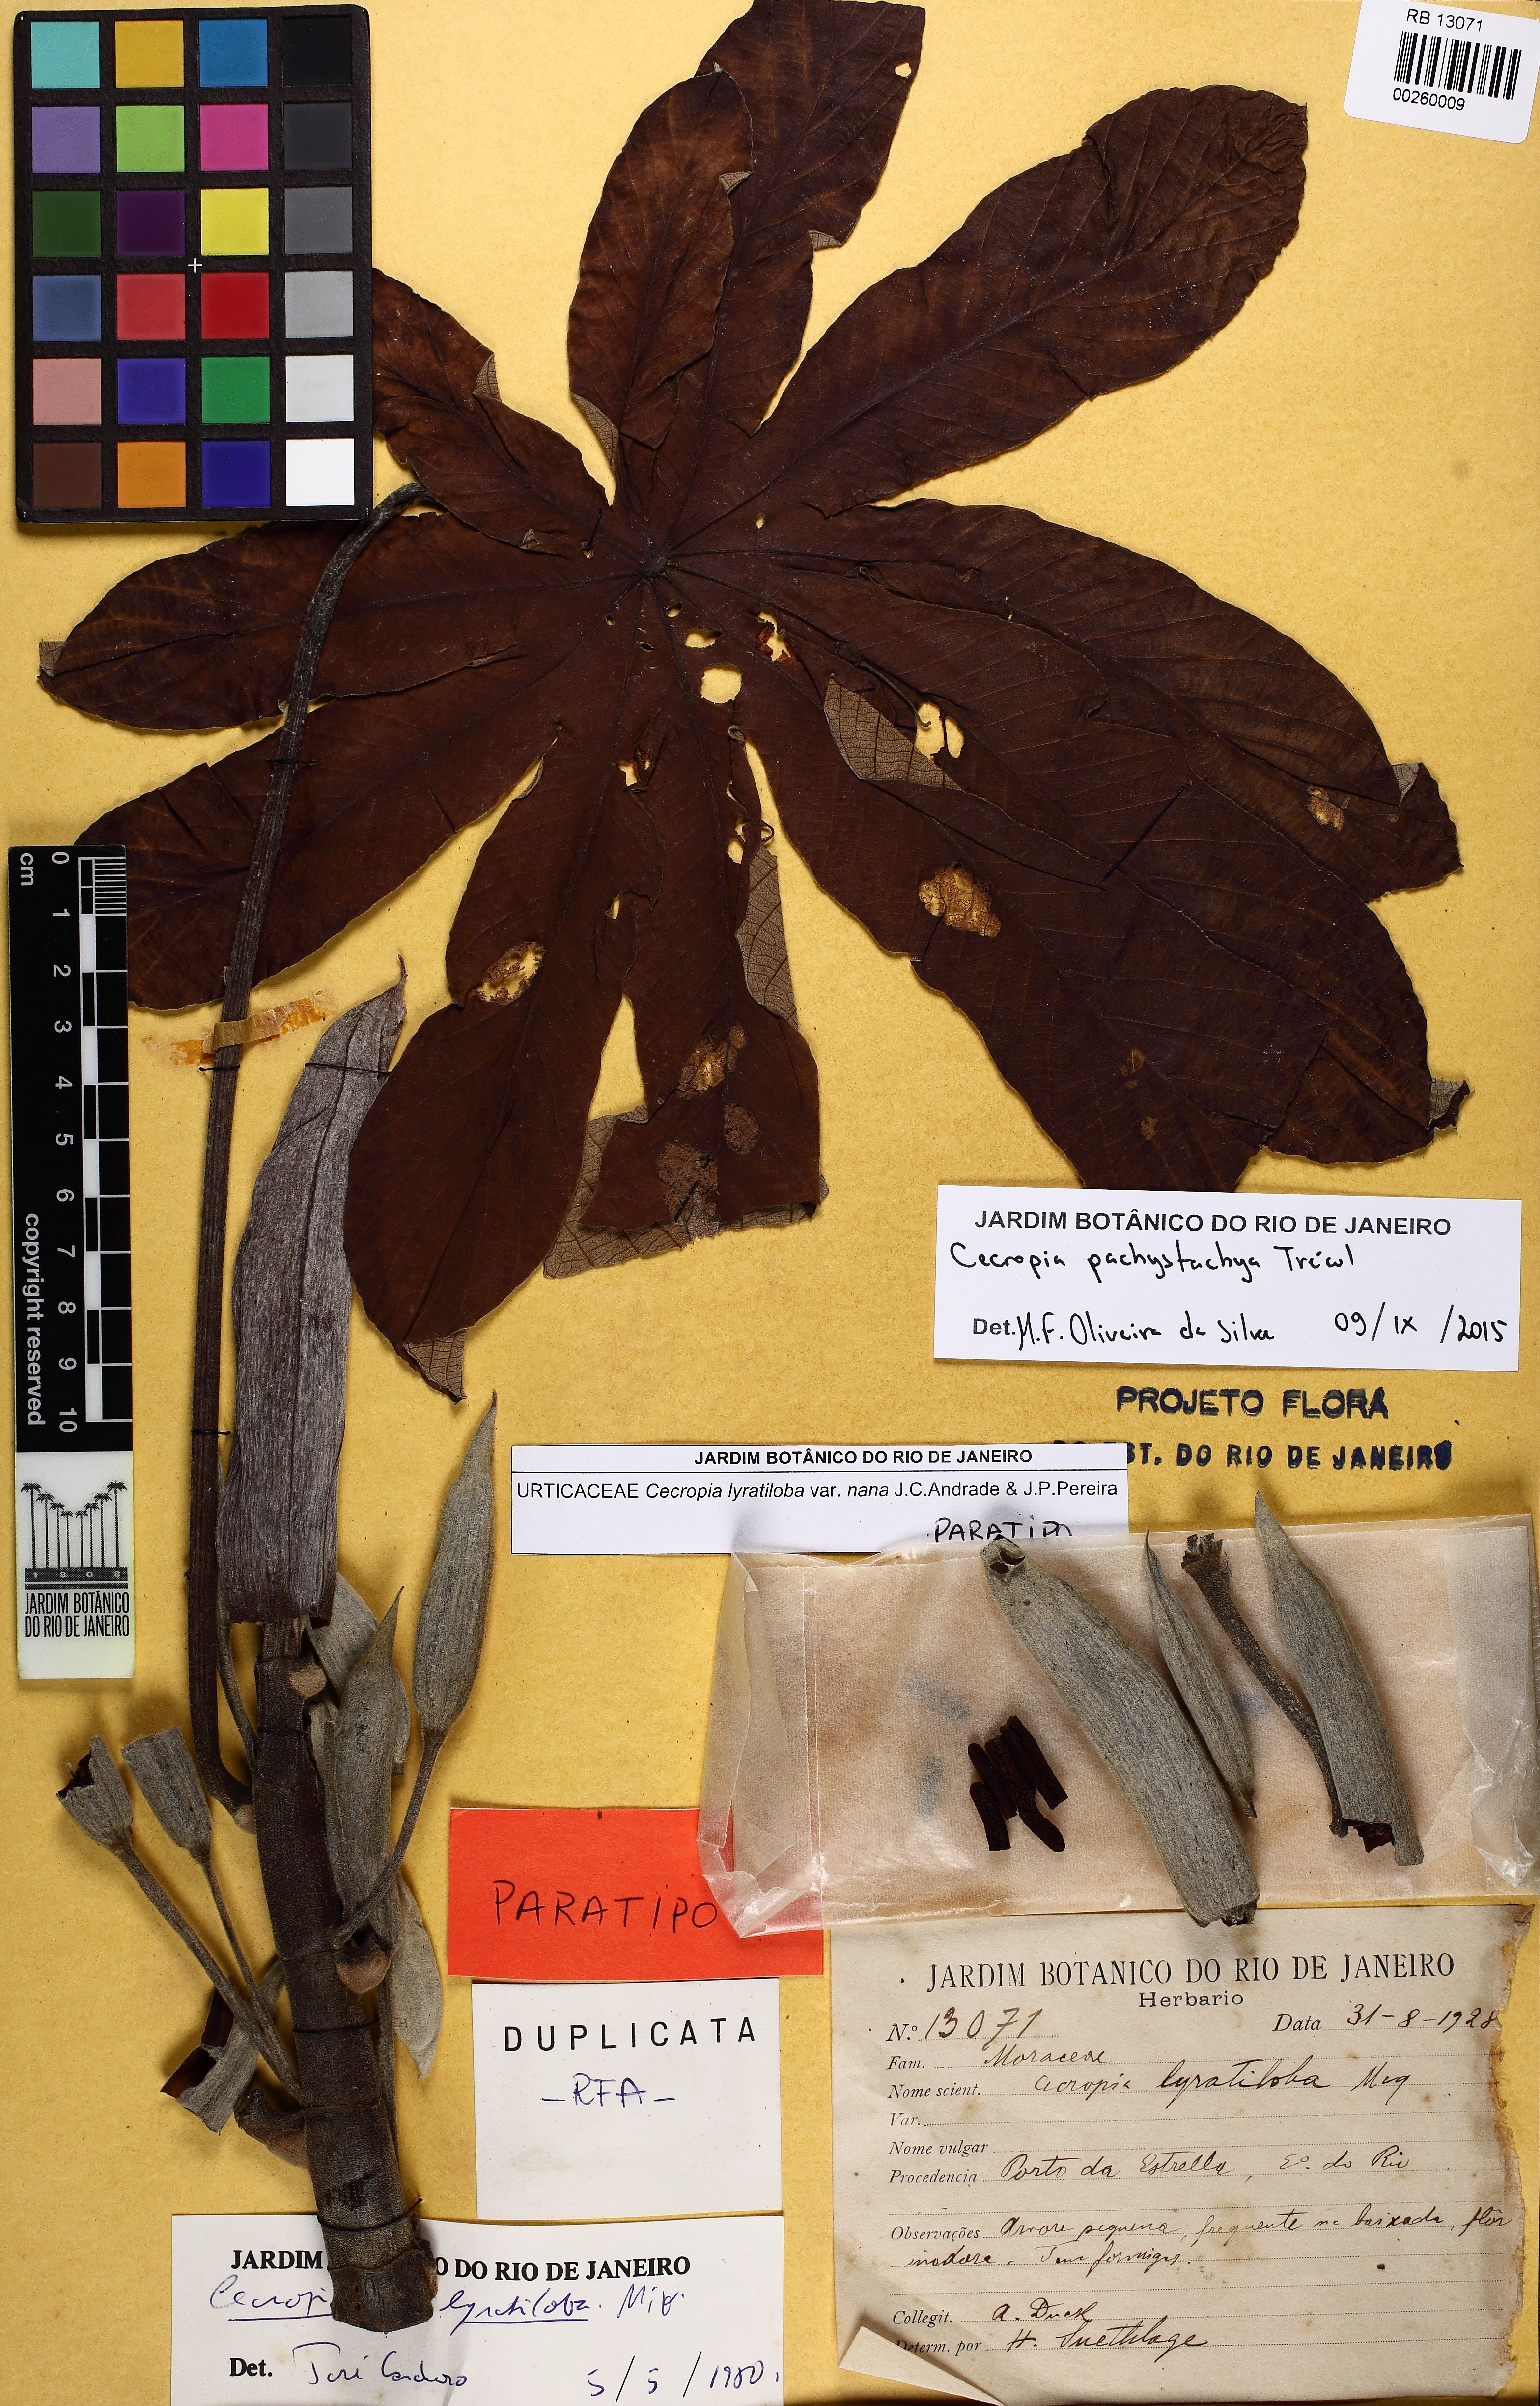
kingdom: Plantae
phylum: Tracheophyta
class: Magnoliopsida
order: Rosales
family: Urticaceae
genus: Cecropia
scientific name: Cecropia pachystachya
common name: Ambay pumpwood
